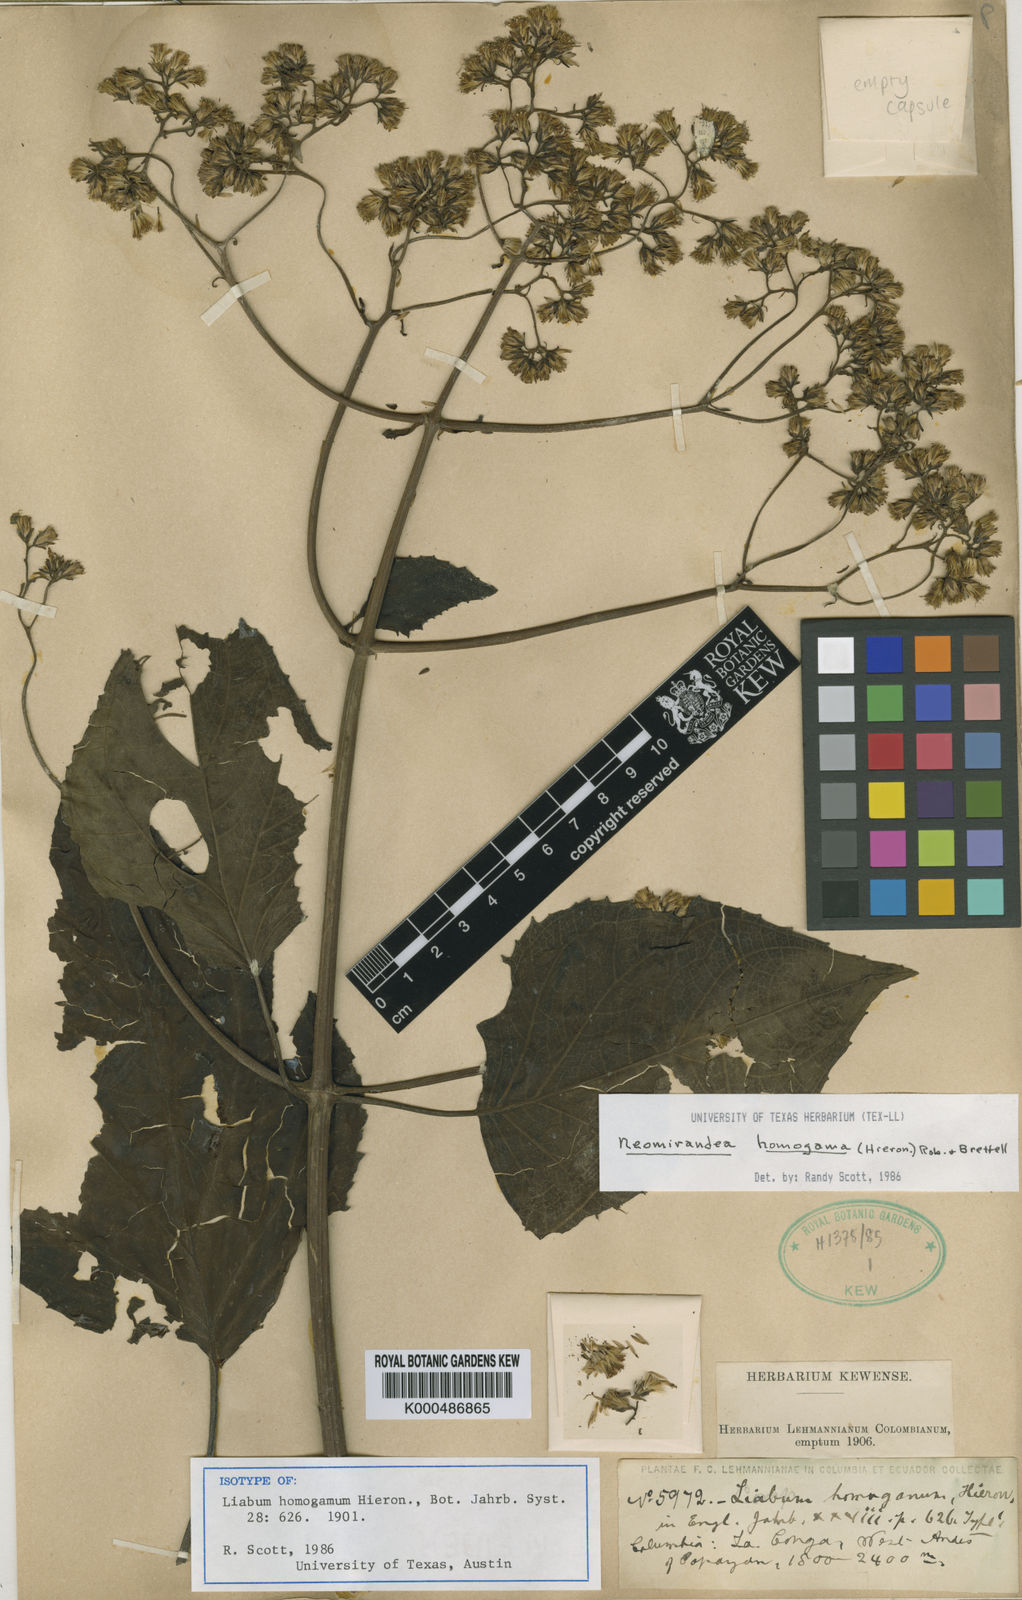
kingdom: Plantae
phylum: Tracheophyta
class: Magnoliopsida
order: Asterales
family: Asteraceae
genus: Neomirandea
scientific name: Neomirandea homogama
